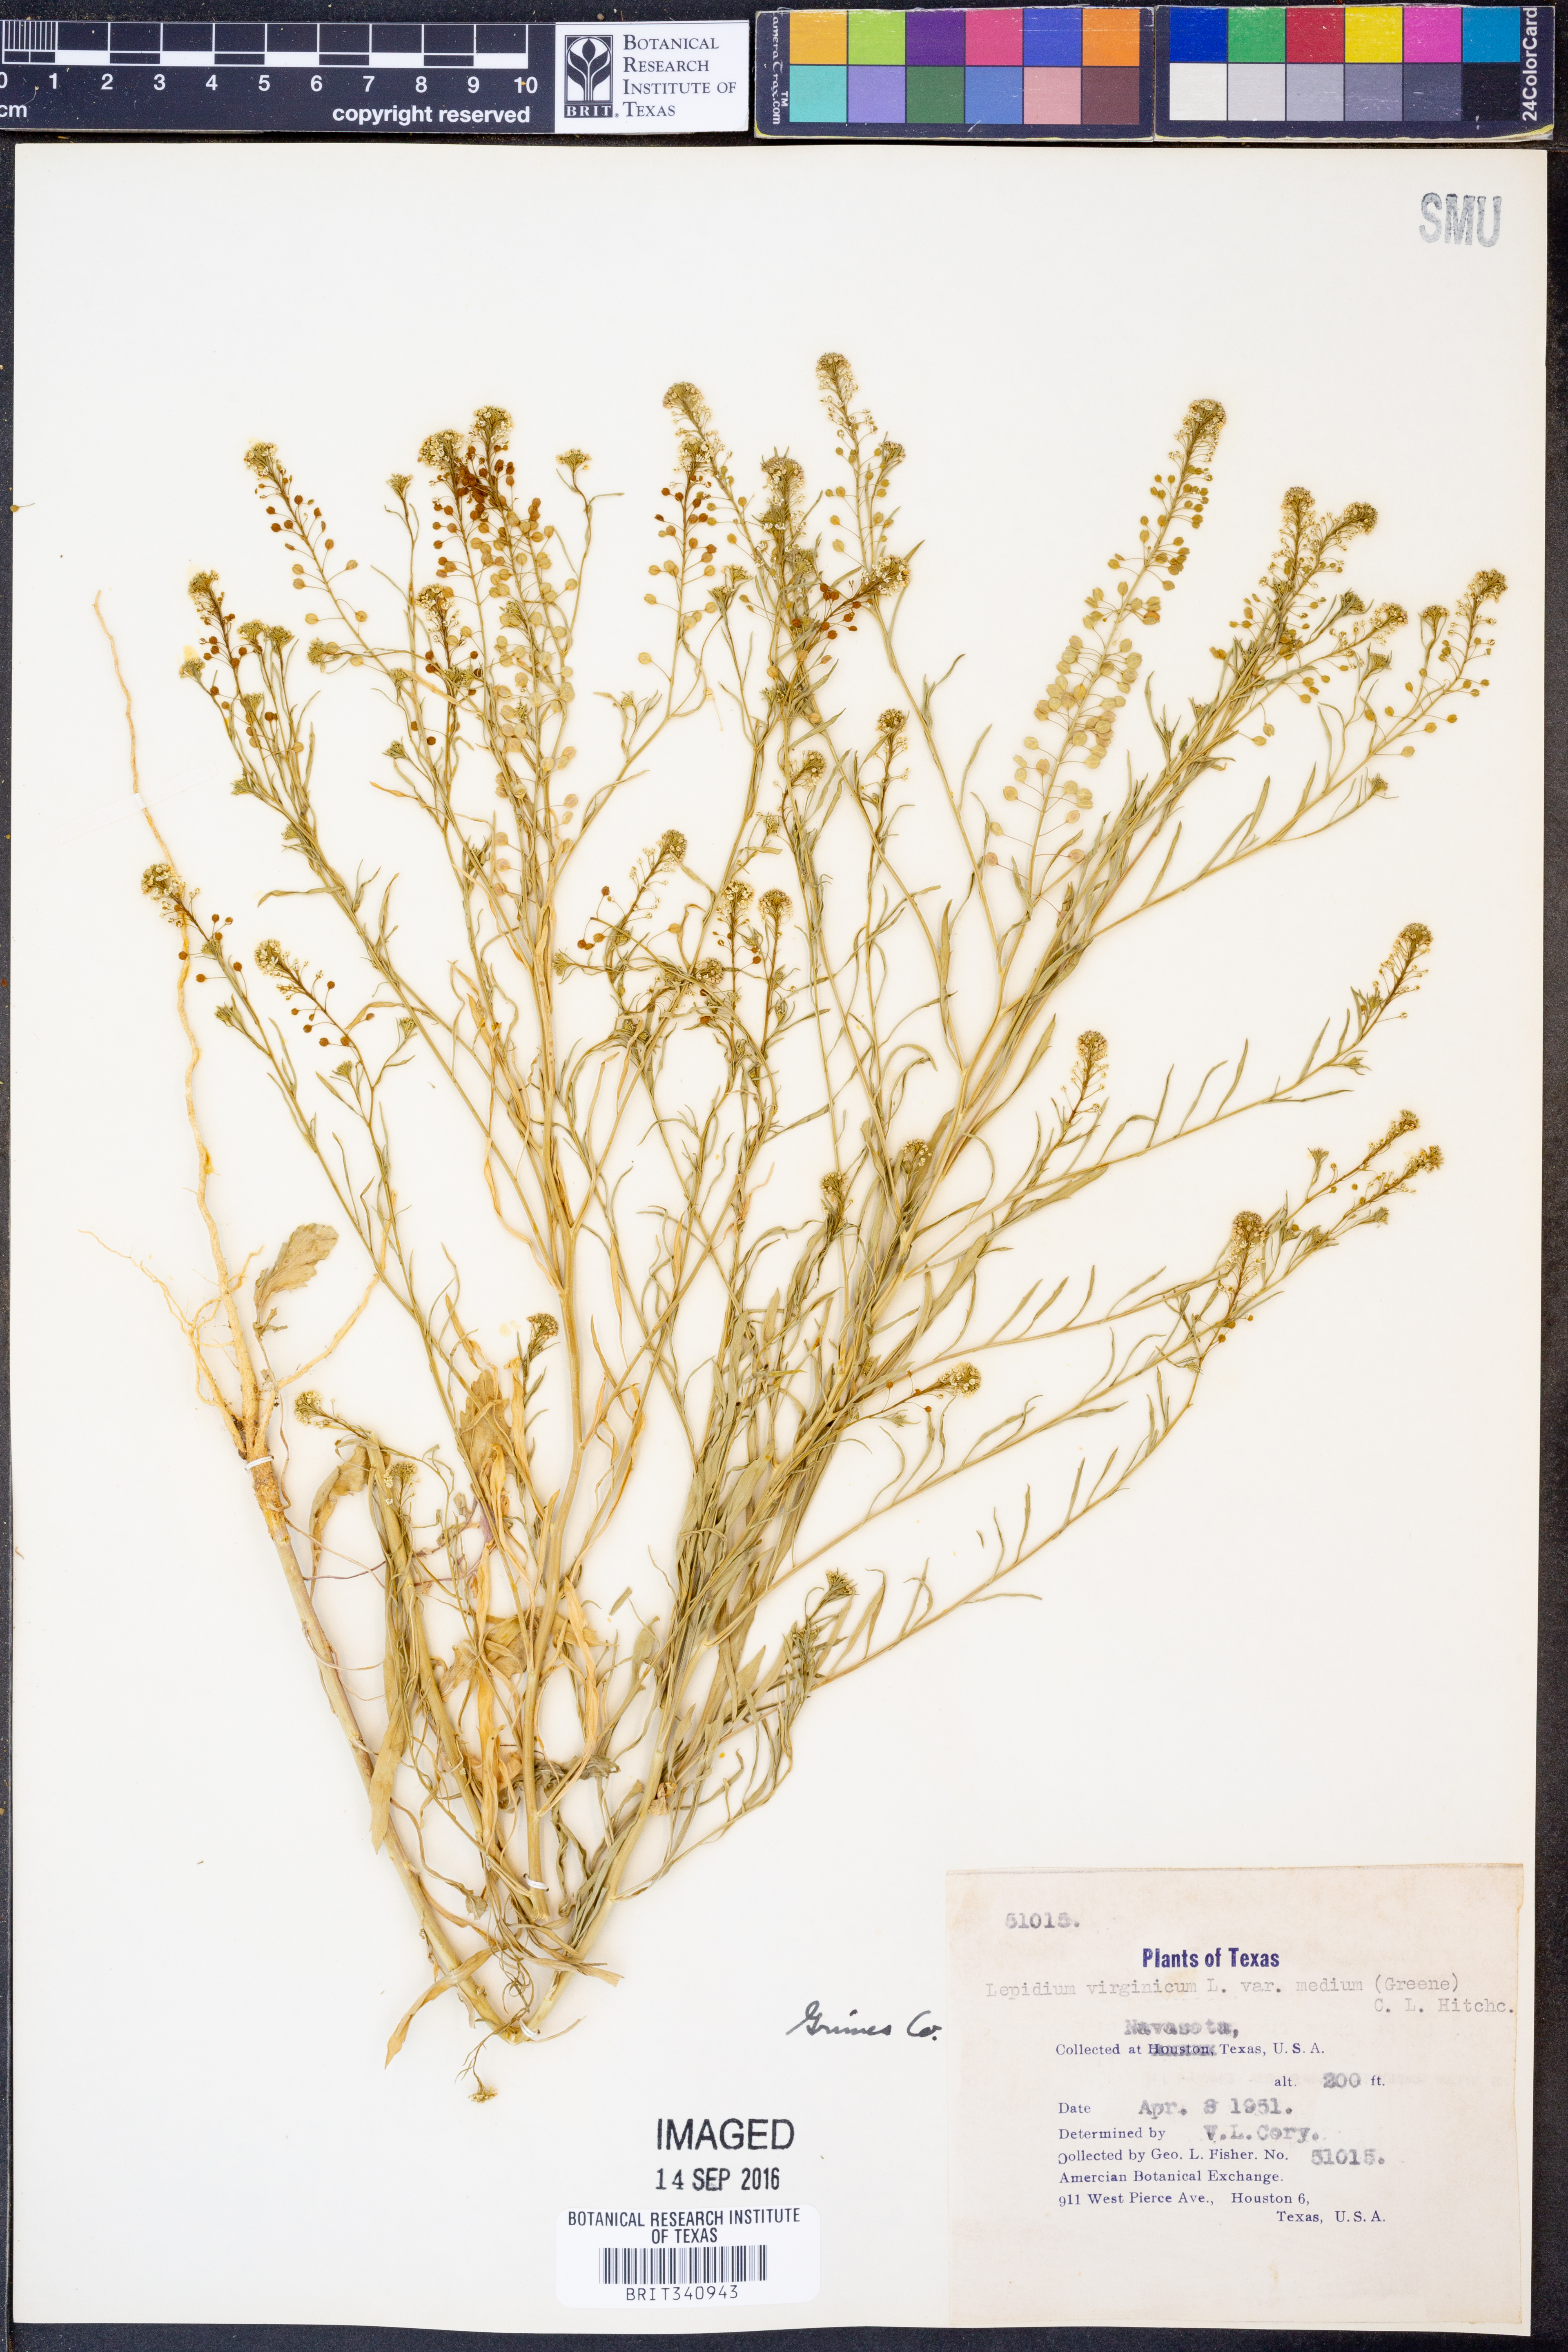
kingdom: Plantae
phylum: Tracheophyta
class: Magnoliopsida
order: Brassicales
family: Brassicaceae
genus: Lepidium
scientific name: Lepidium virginicum
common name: Least pepperwort
